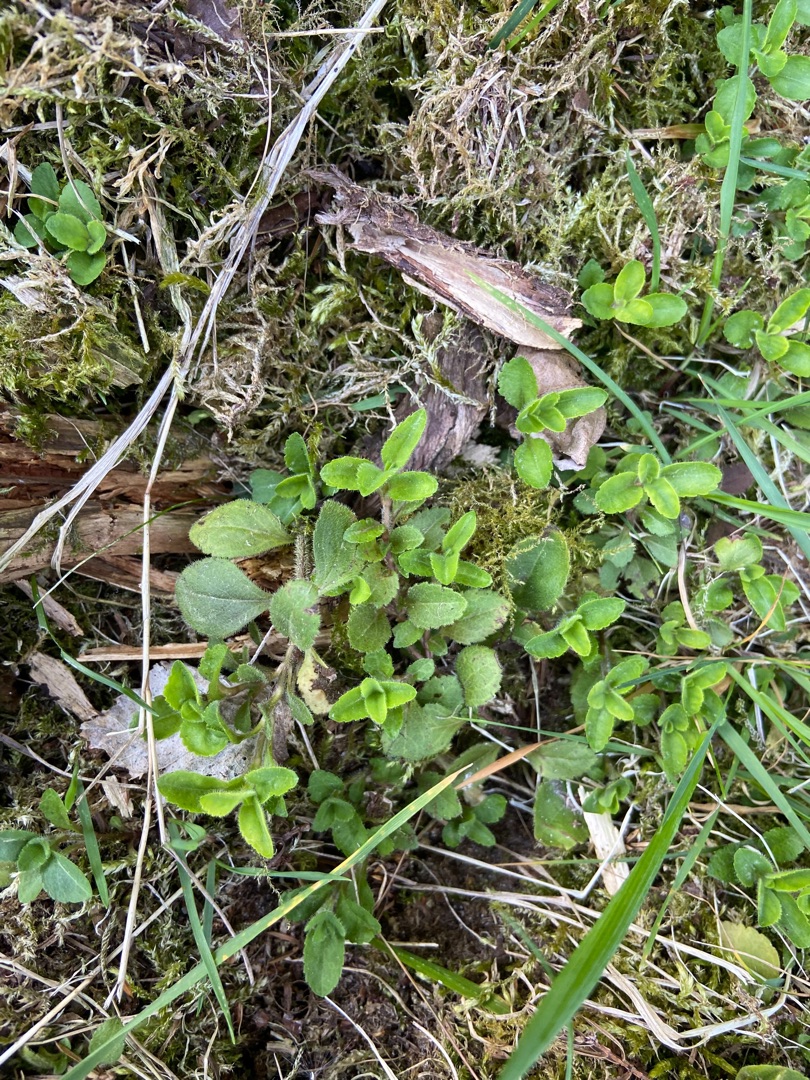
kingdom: Plantae
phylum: Tracheophyta
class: Magnoliopsida
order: Lamiales
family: Plantaginaceae
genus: Veronica
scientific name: Veronica officinalis
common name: Læge-ærenpris
